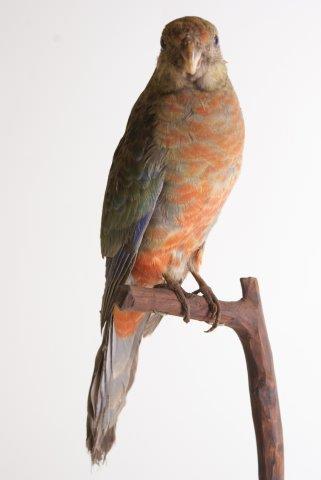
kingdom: Animalia
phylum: Chordata
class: Aves
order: Psittaciformes
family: Psittacidae
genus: Platycercus
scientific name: Platycercus icterotis
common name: Western rosella
